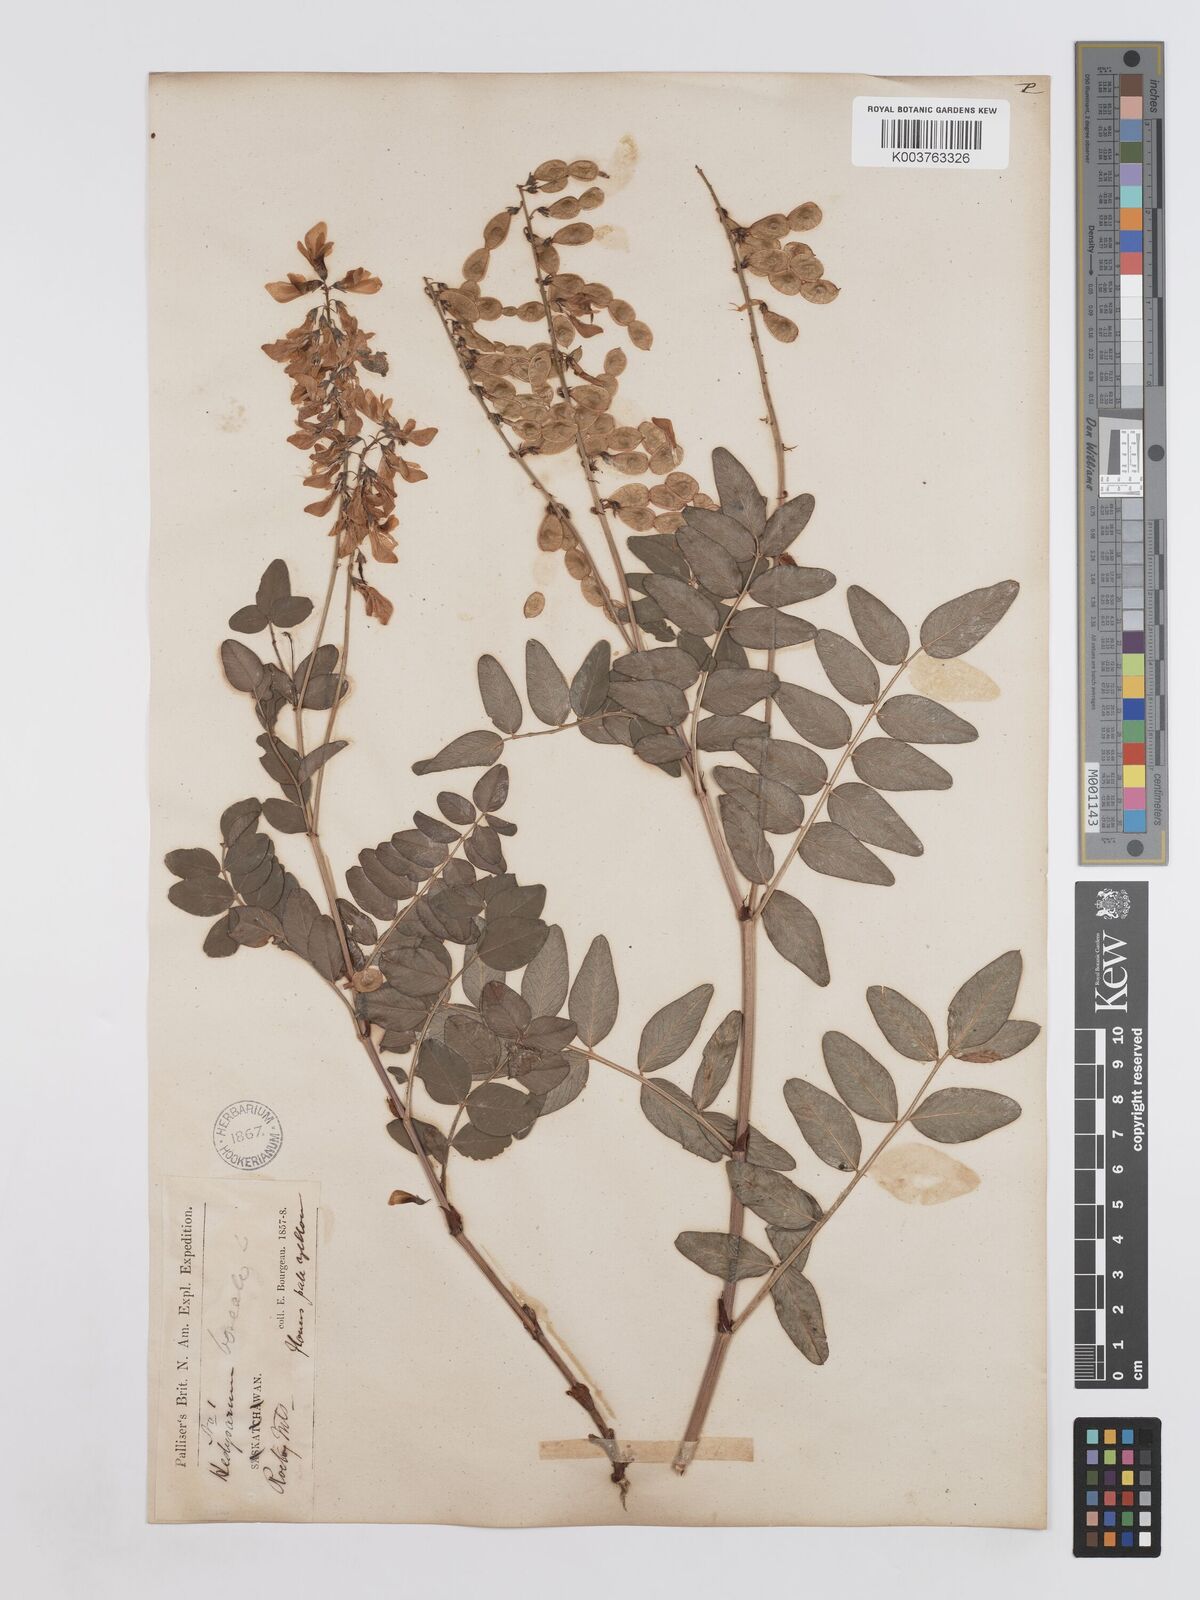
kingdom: Plantae
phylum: Tracheophyta
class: Magnoliopsida
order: Fabales
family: Fabaceae
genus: Hedysarum
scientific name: Hedysarum sulphurescens
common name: Sulphur hedysarum
